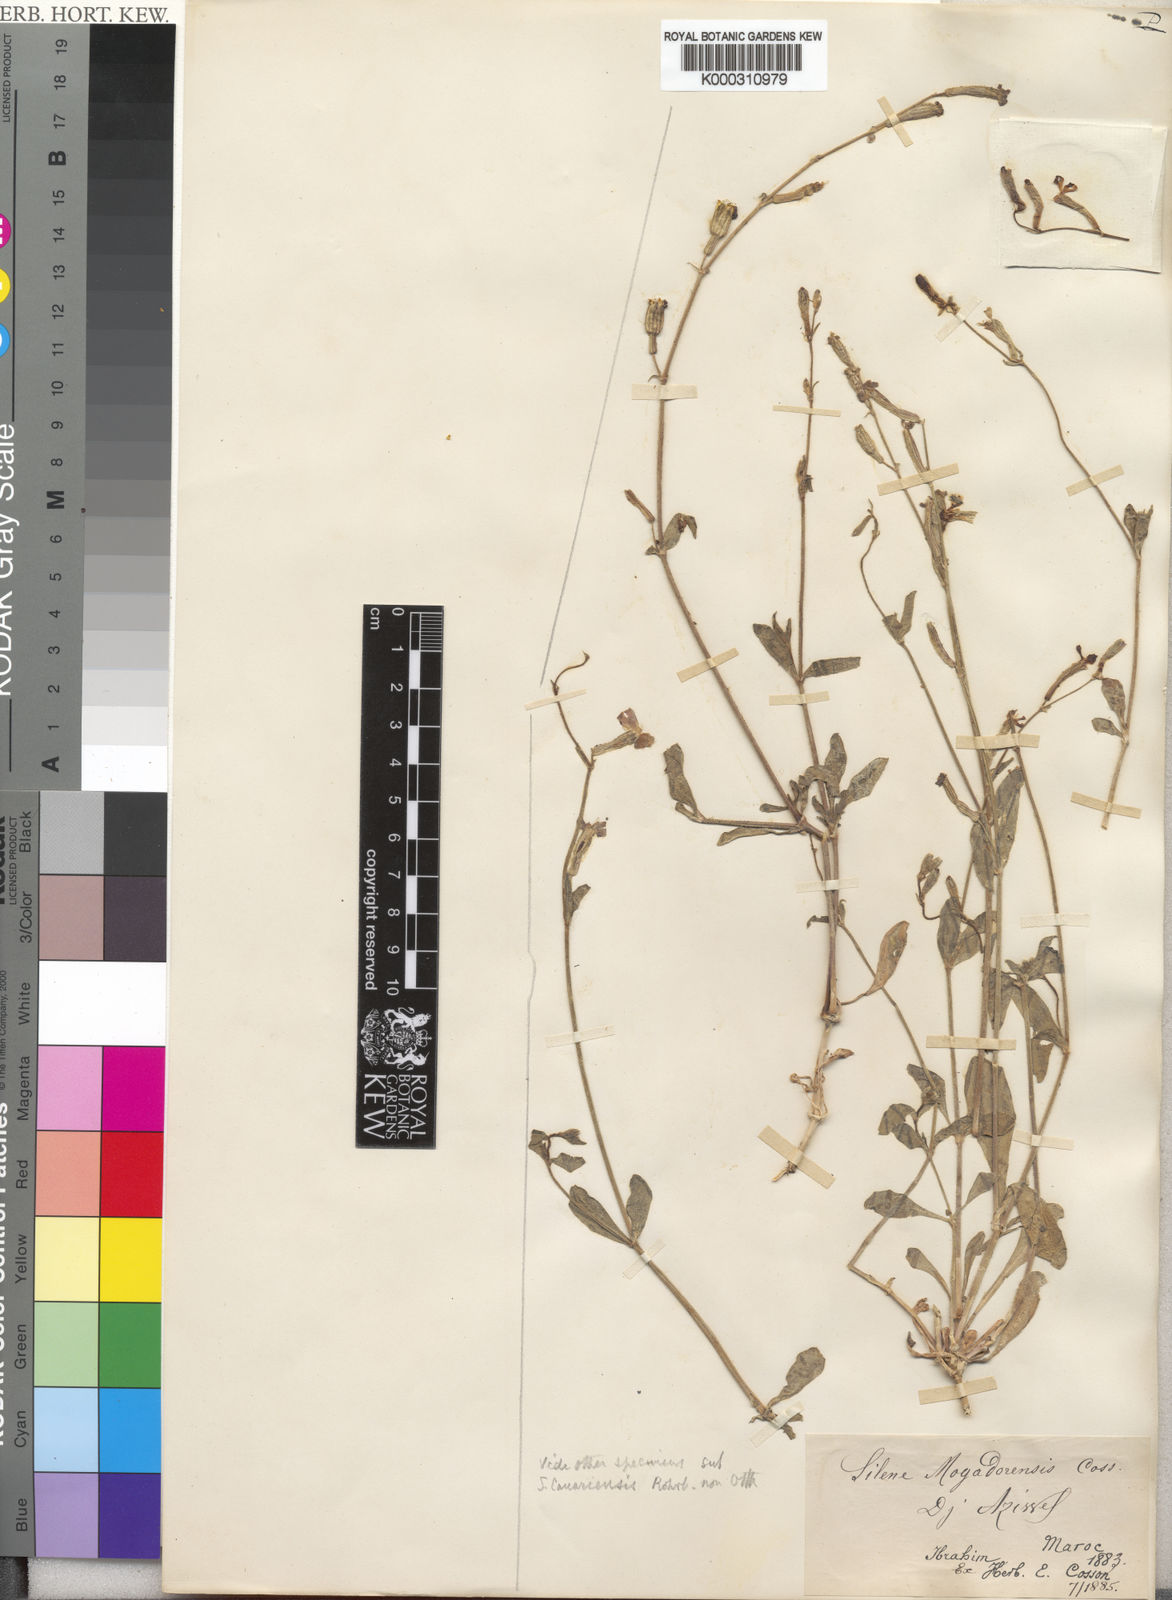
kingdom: Plantae
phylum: Tracheophyta
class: Magnoliopsida
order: Caryophyllales
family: Caryophyllaceae
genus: Silene
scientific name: Silene corrugata
